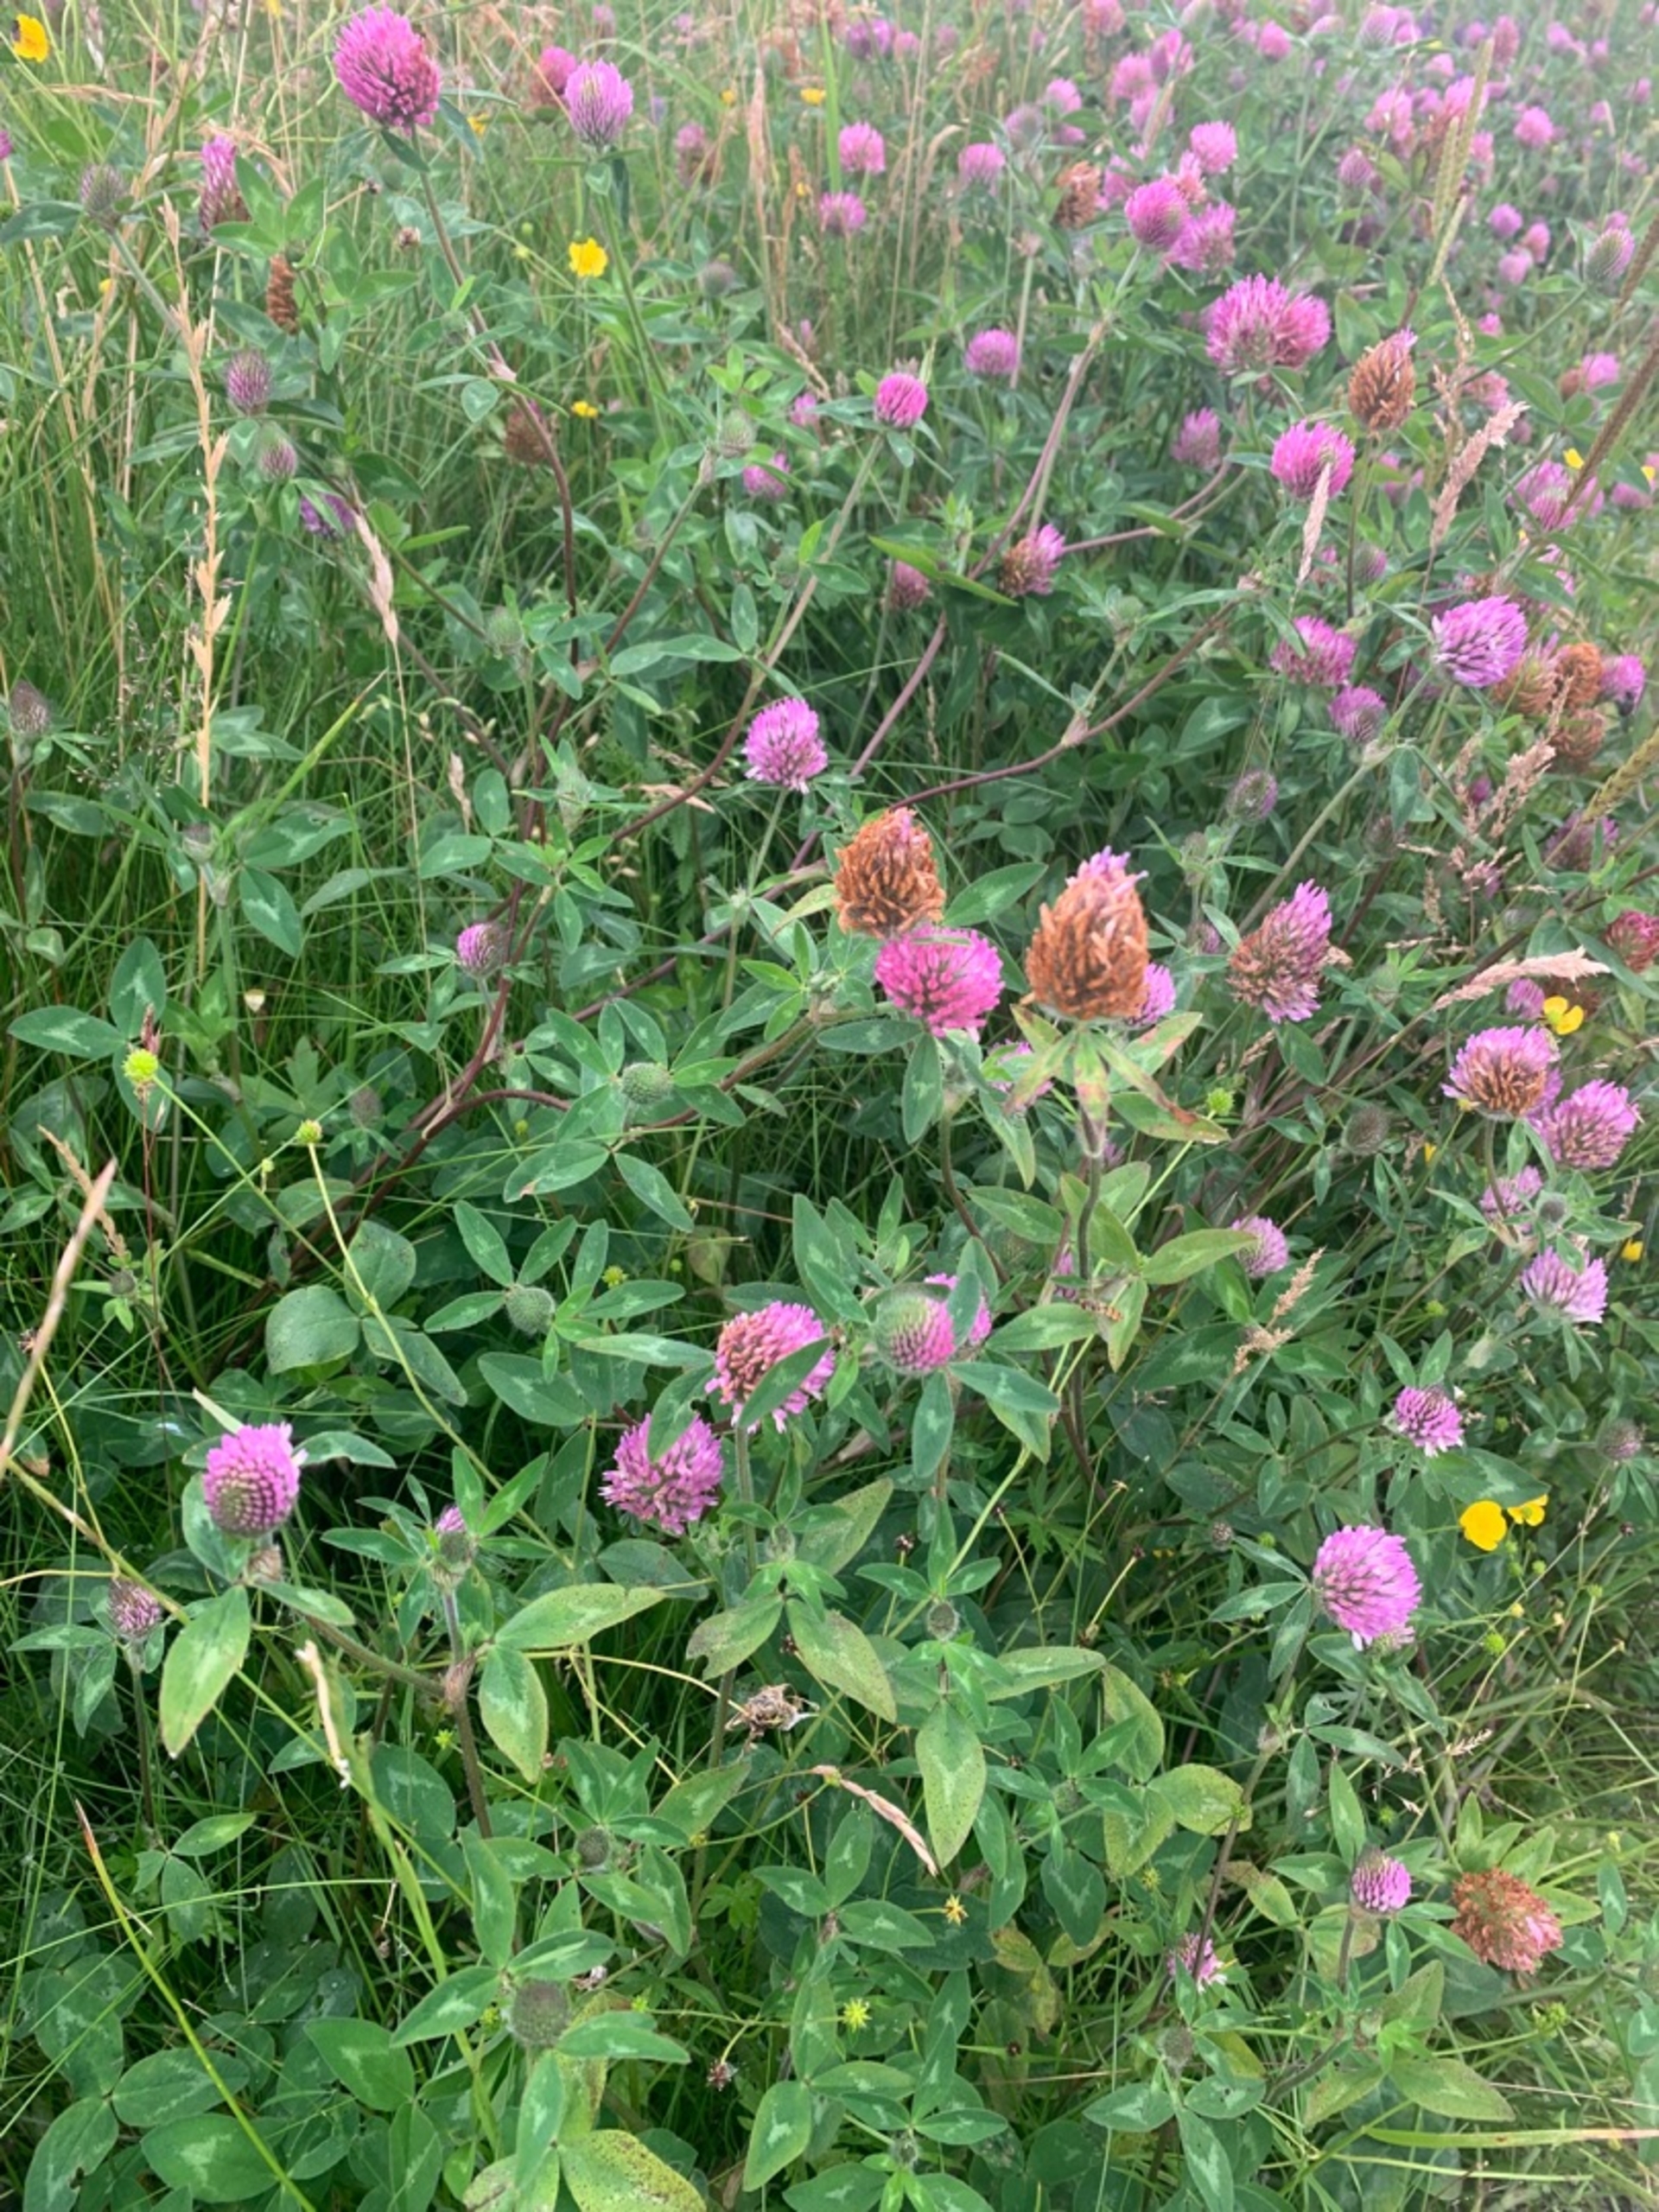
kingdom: Plantae
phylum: Tracheophyta
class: Magnoliopsida
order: Fabales
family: Fabaceae
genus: Trifolium
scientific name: Trifolium pratense
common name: Rød-kløver
